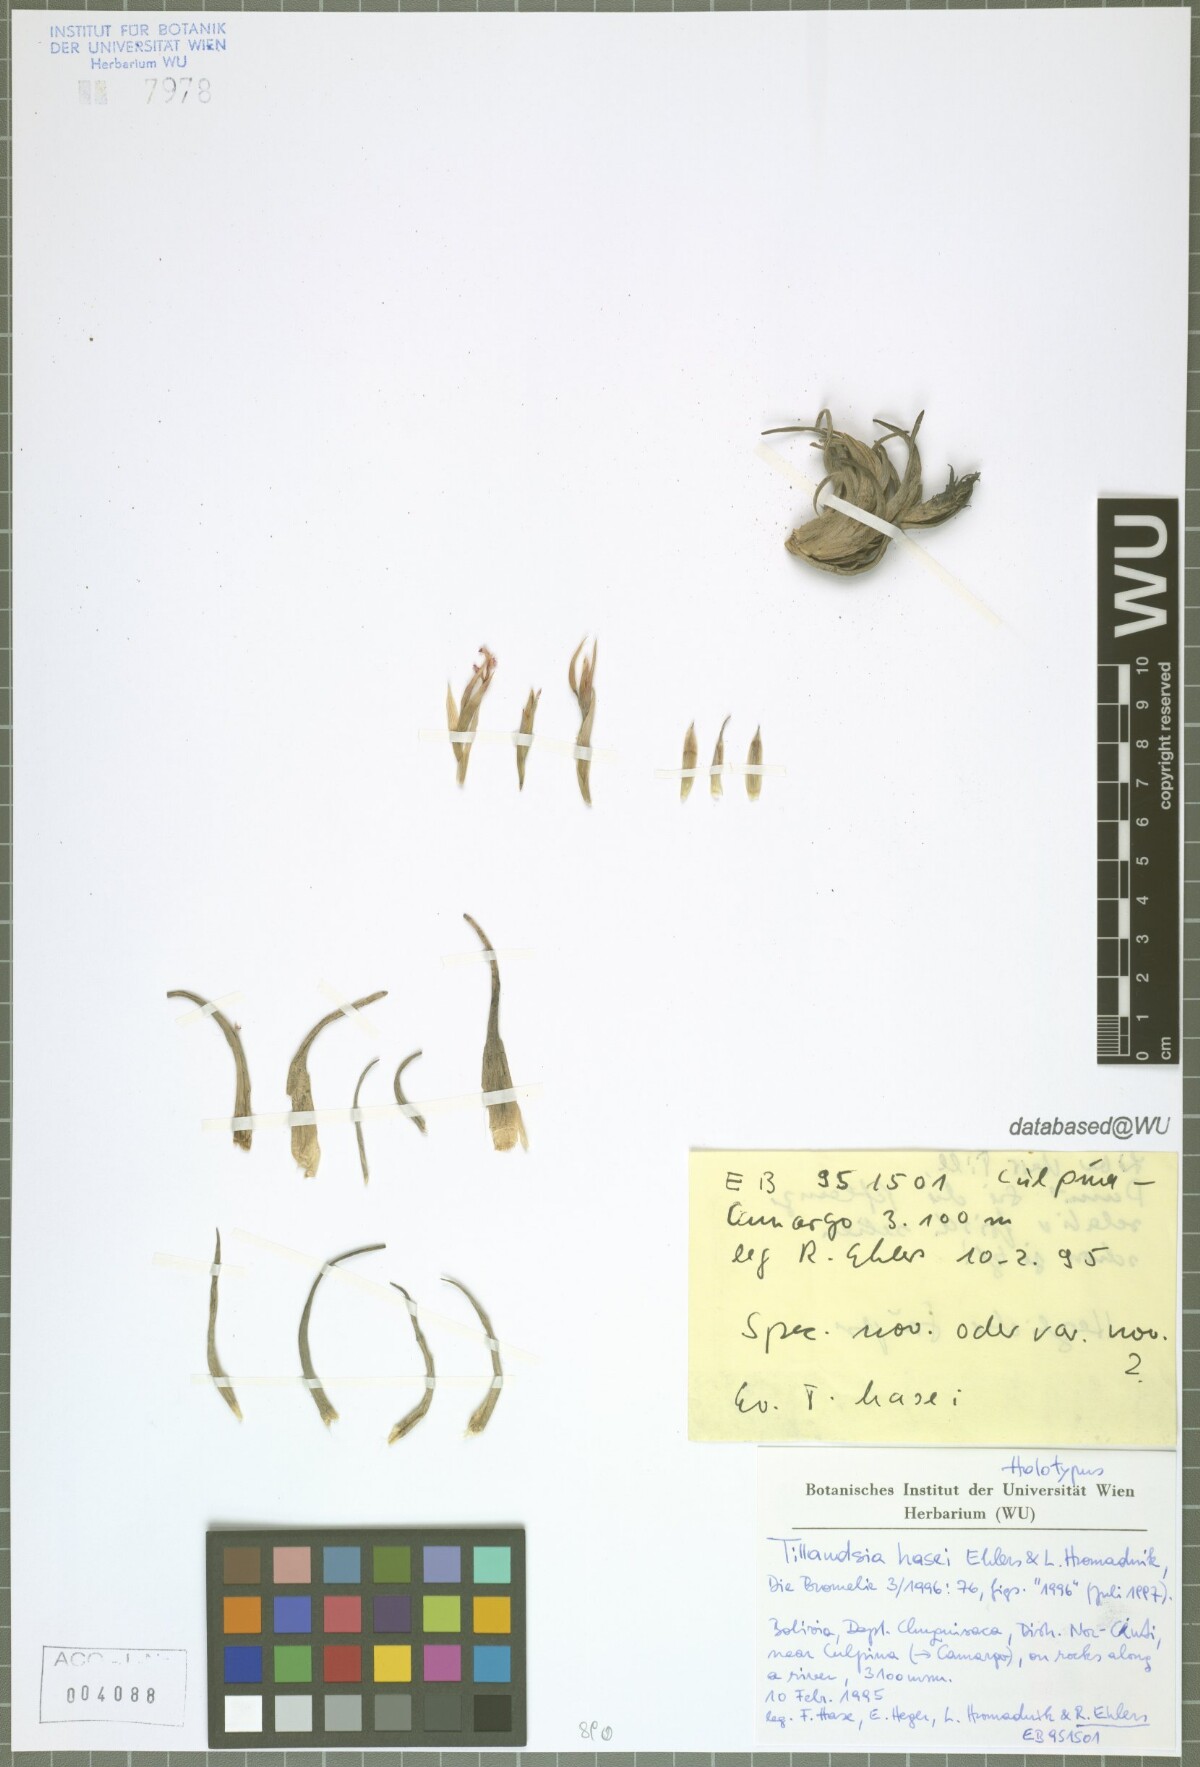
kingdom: Plantae
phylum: Tracheophyta
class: Liliopsida
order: Poales
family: Bromeliaceae
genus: Tillandsia
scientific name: Tillandsia hasei
